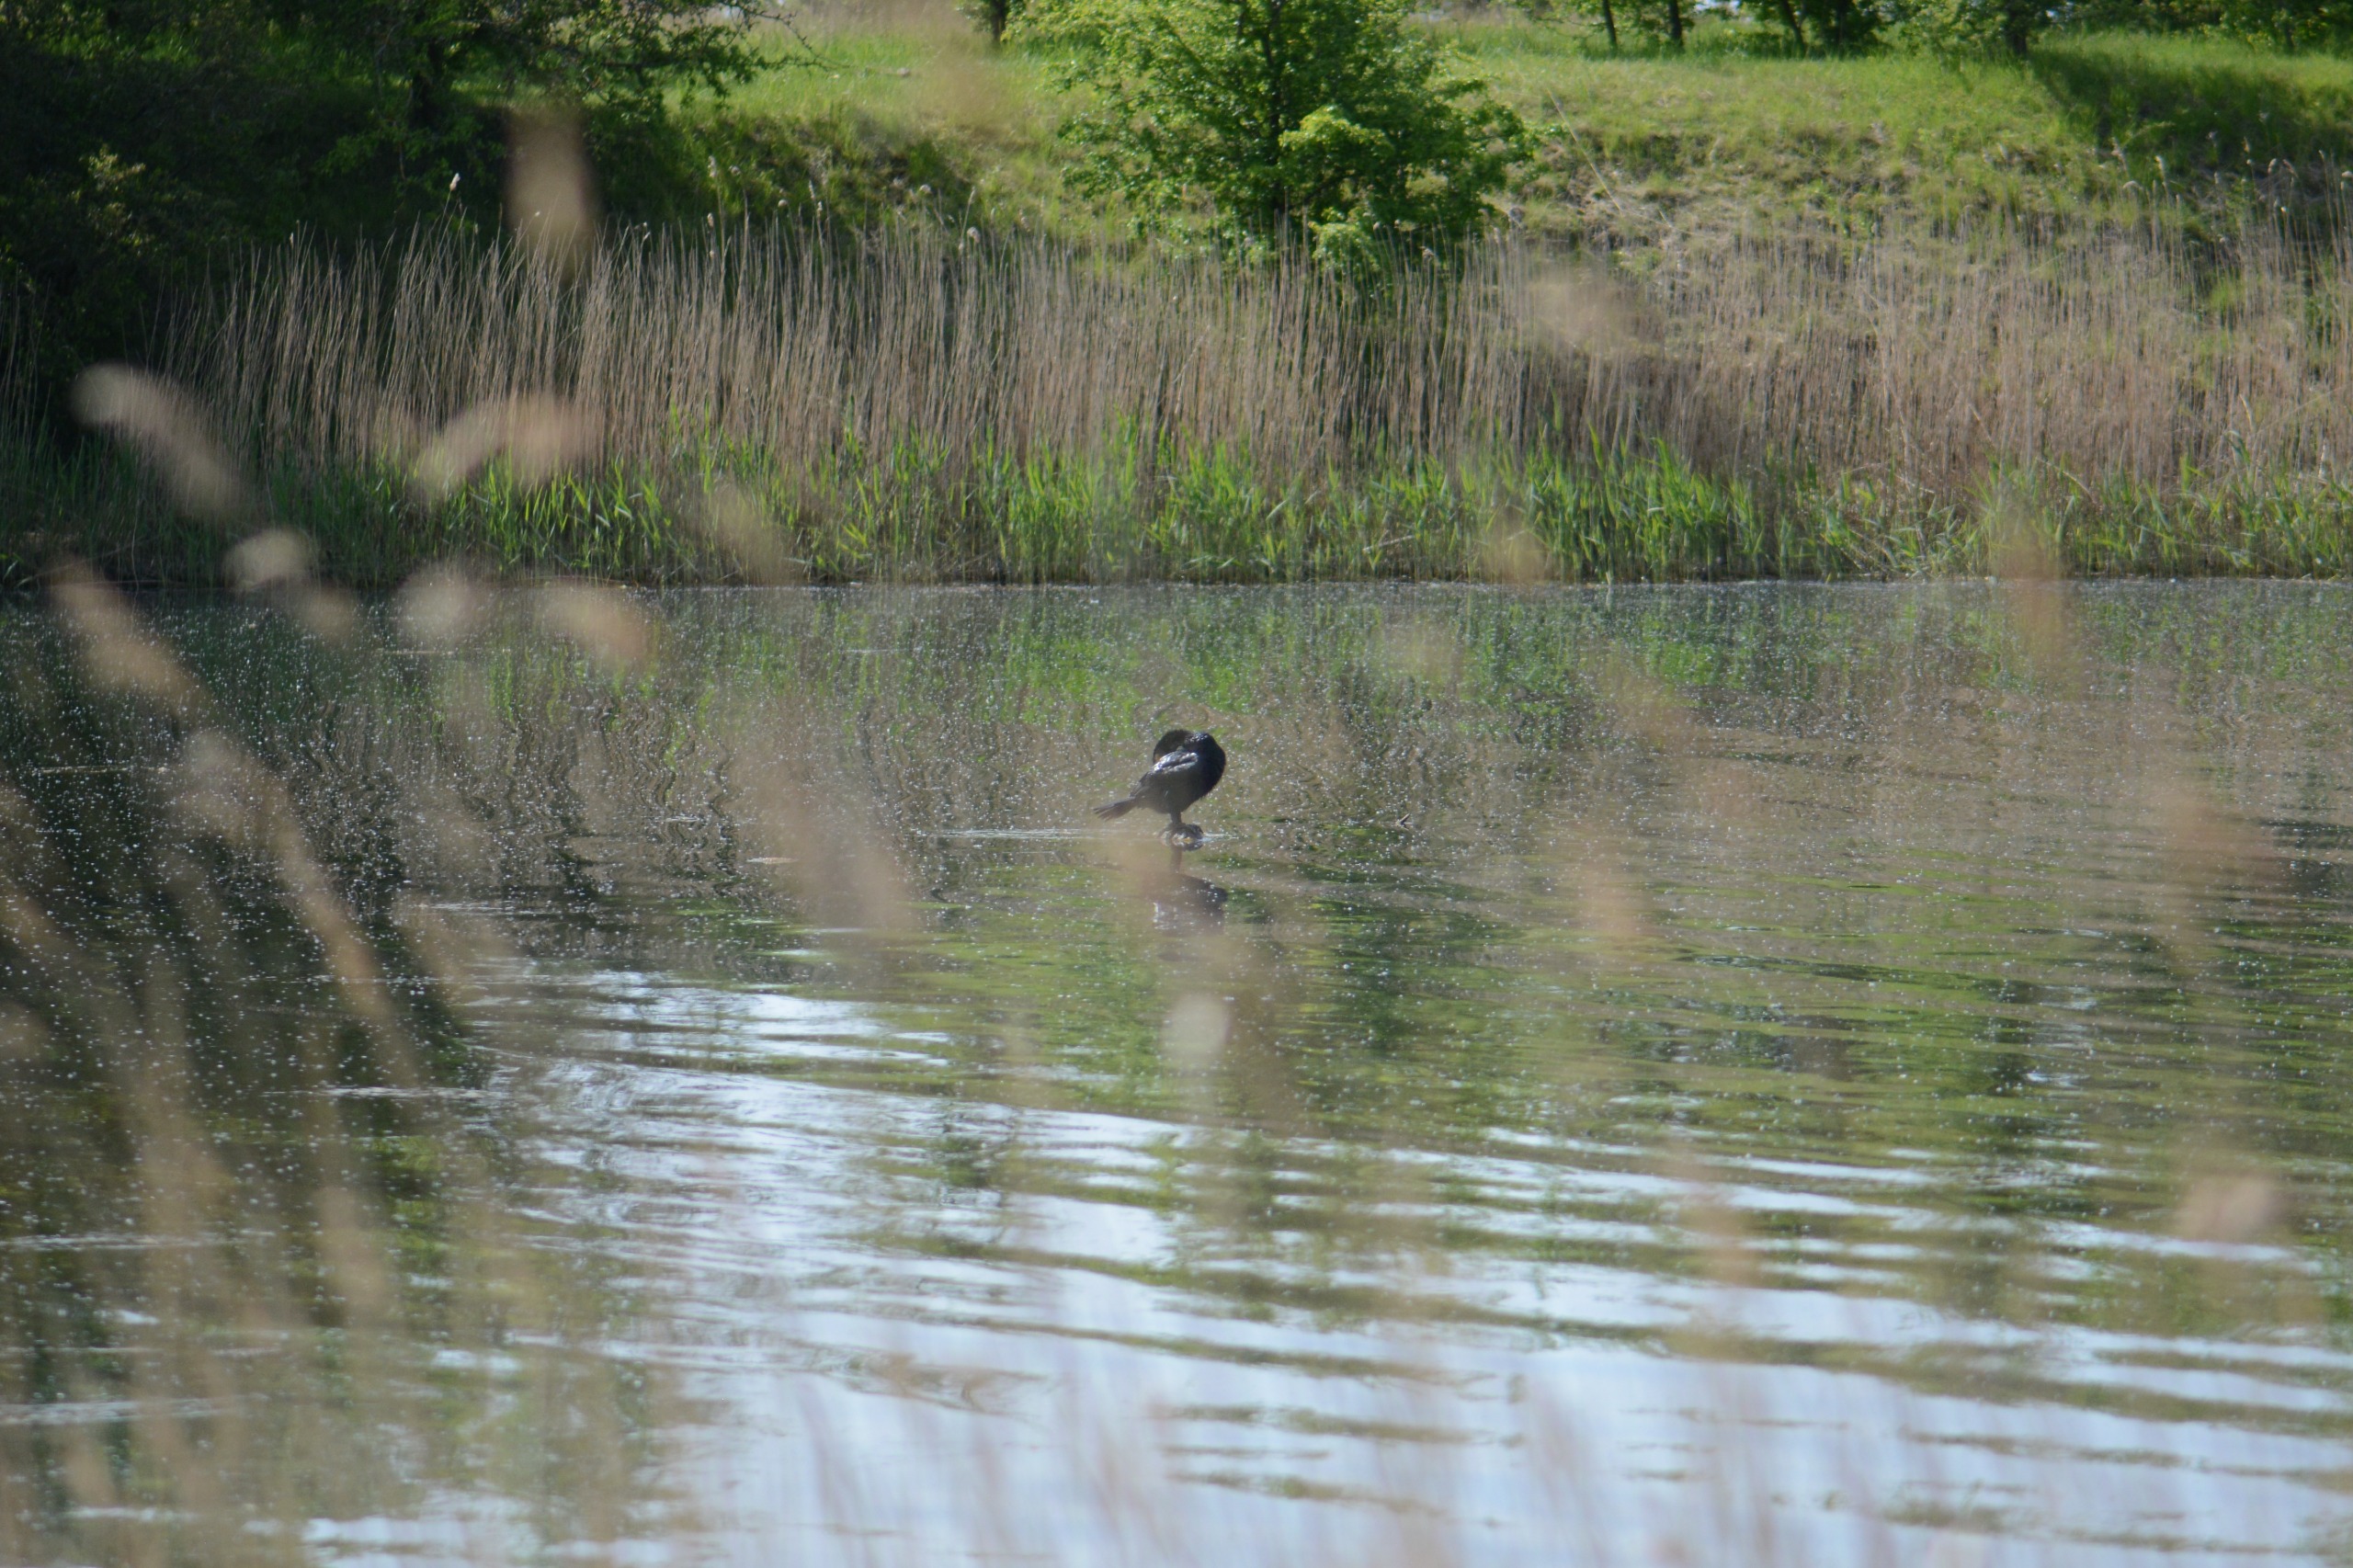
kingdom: Animalia
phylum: Chordata
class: Aves
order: Suliformes
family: Phalacrocoracidae
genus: Phalacrocorax
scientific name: Phalacrocorax carbo
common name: Skarv
